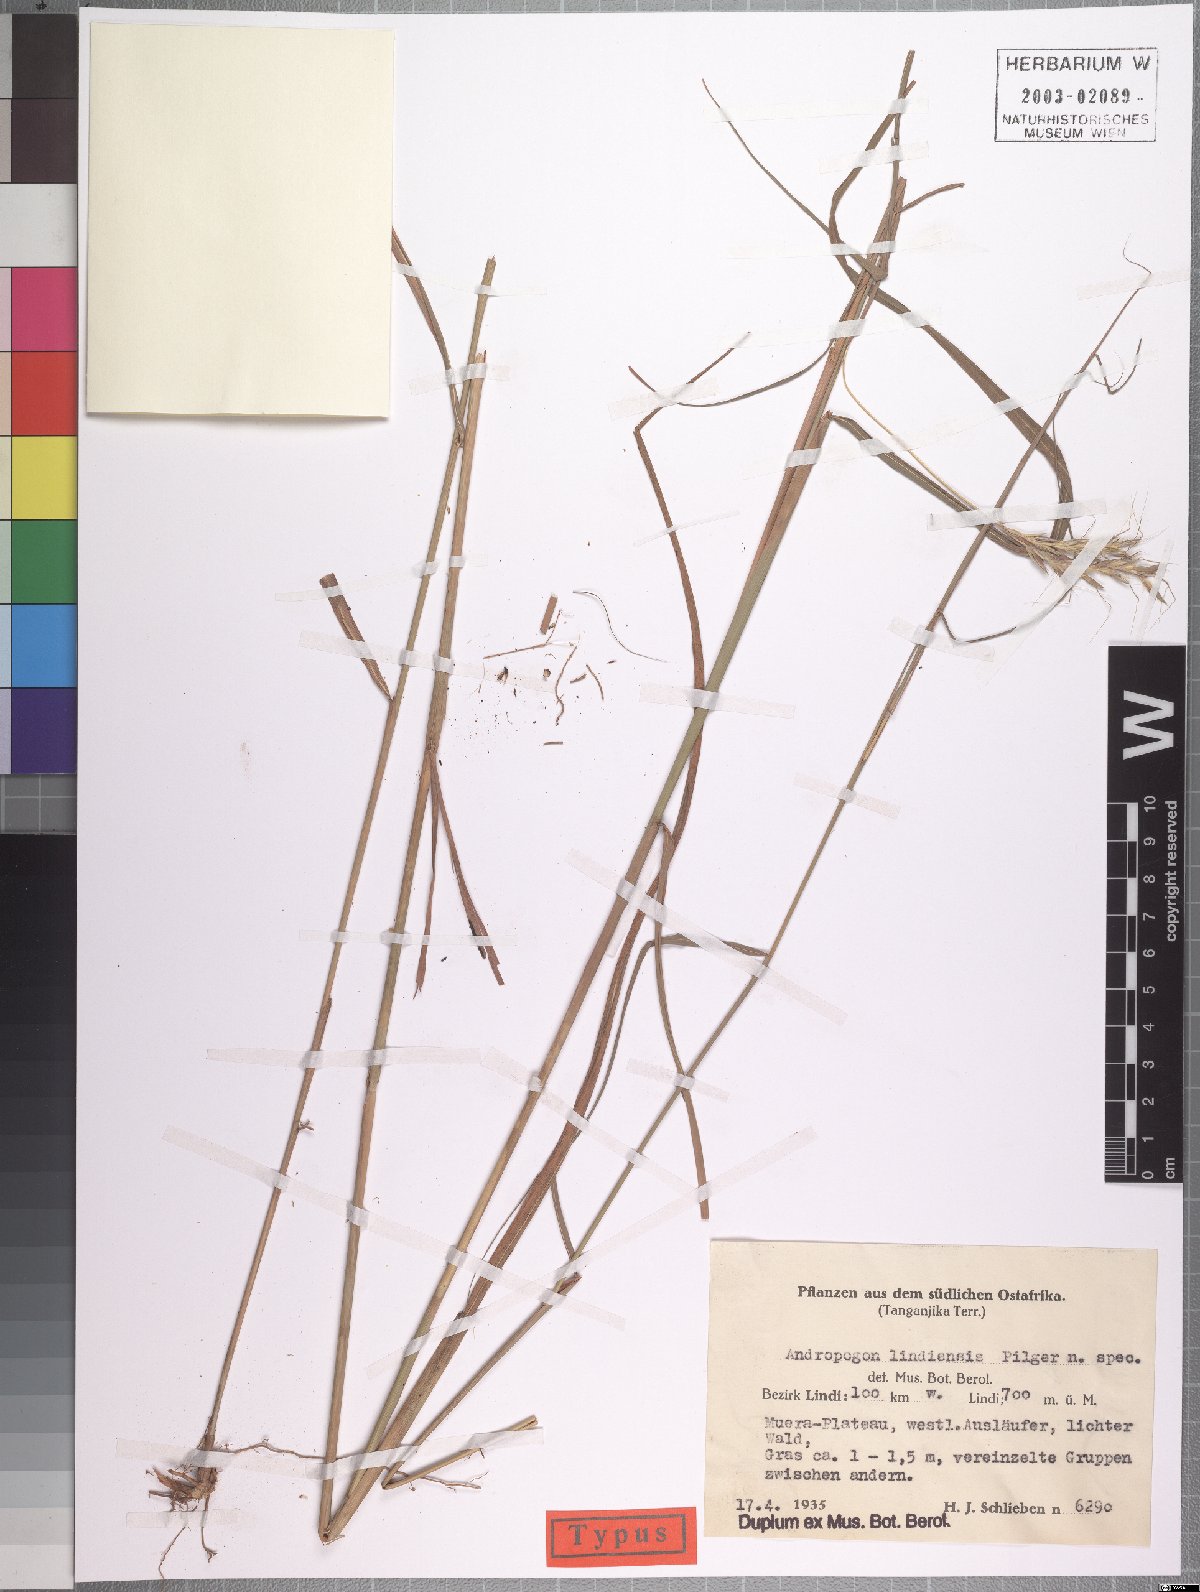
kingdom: Plantae
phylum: Tracheophyta
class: Liliopsida
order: Poales
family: Poaceae
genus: Andropogon
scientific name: Andropogon chinensis
